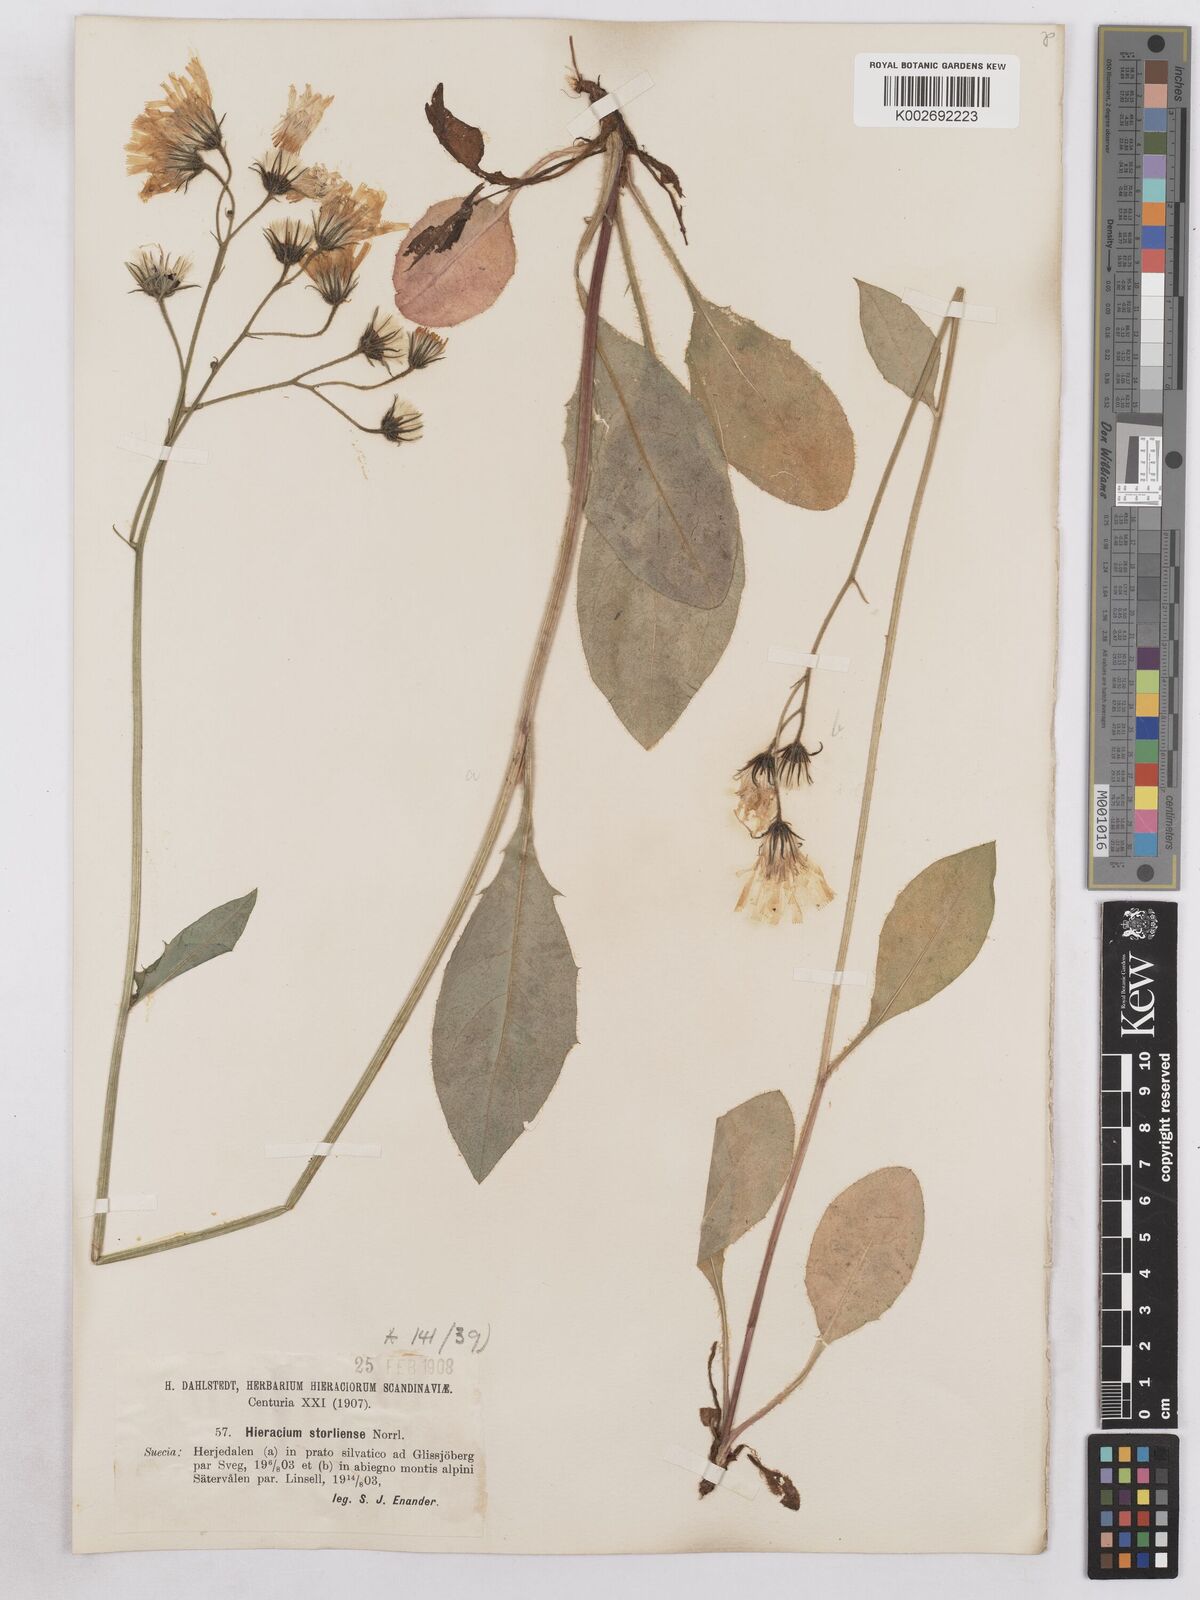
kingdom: Plantae
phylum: Tracheophyta
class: Magnoliopsida
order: Asterales
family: Asteraceae
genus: Hieracium
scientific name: Hieracium diaphanoides
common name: Fine-bracted hawkweed
